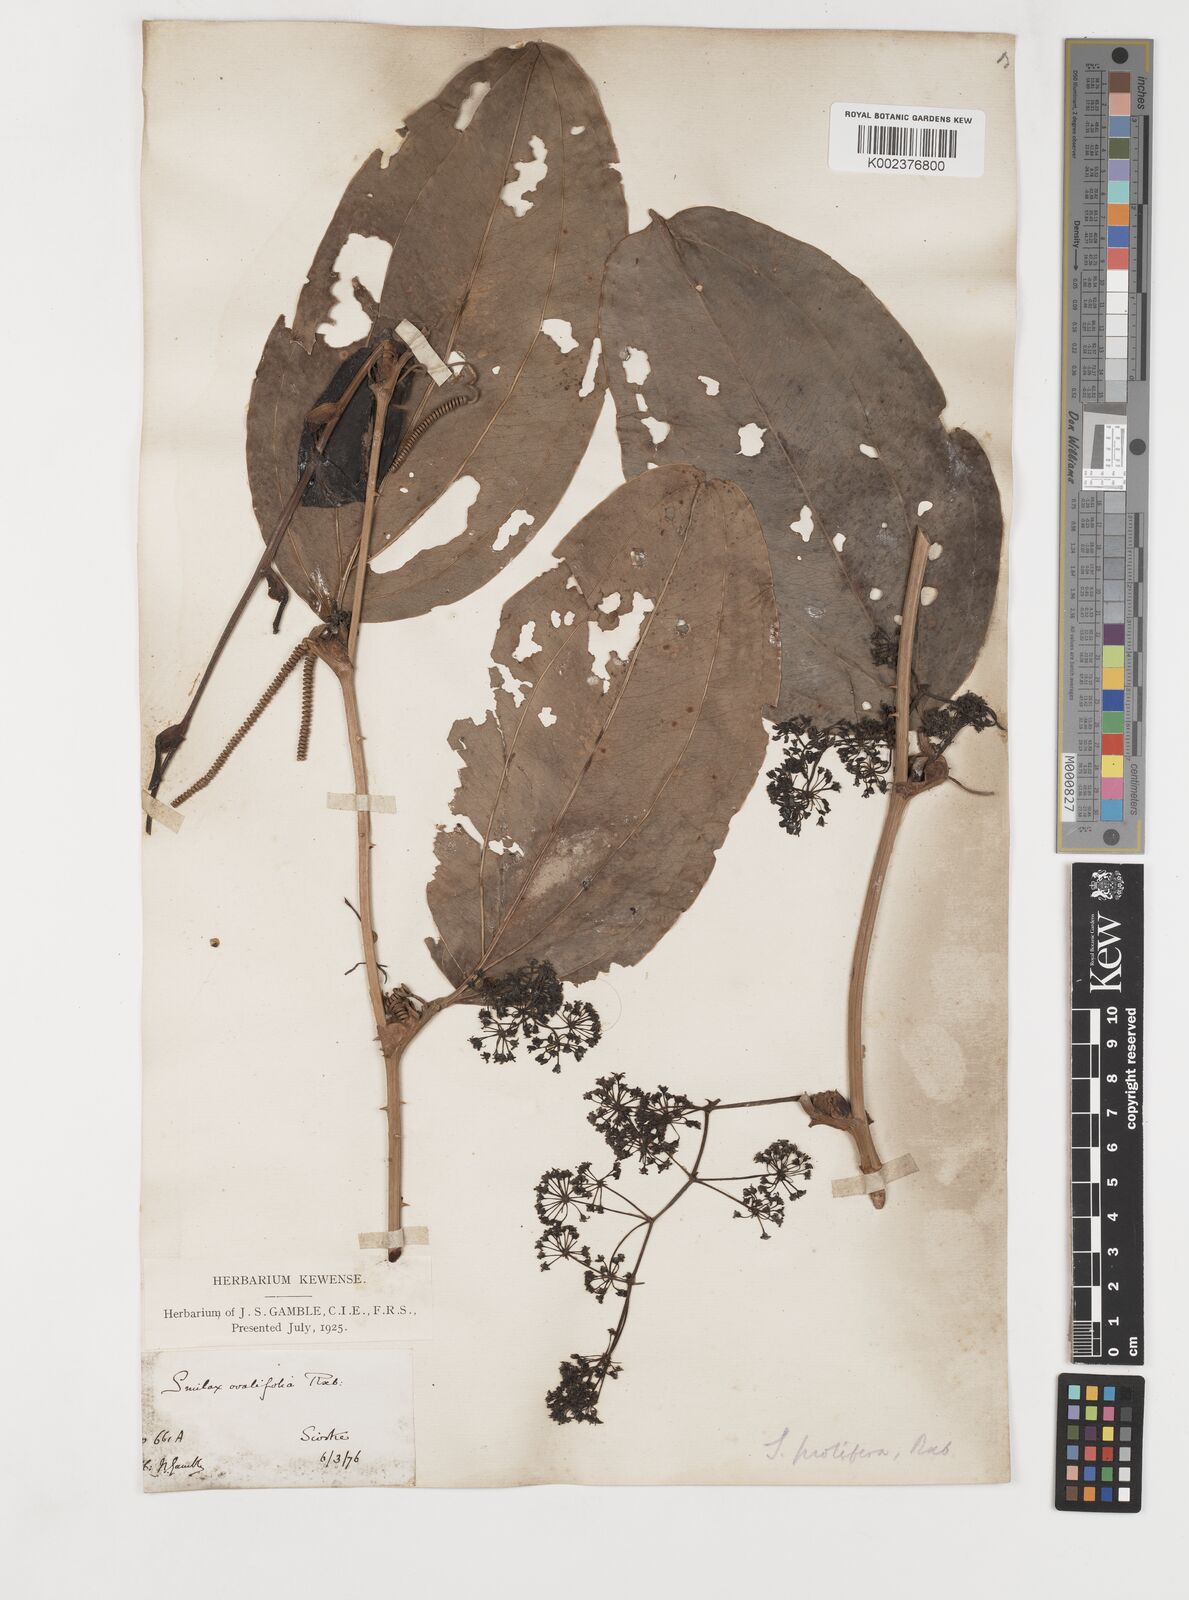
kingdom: Plantae
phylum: Tracheophyta
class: Liliopsida
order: Liliales
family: Smilacaceae
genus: Smilax
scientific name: Smilax prolifera
